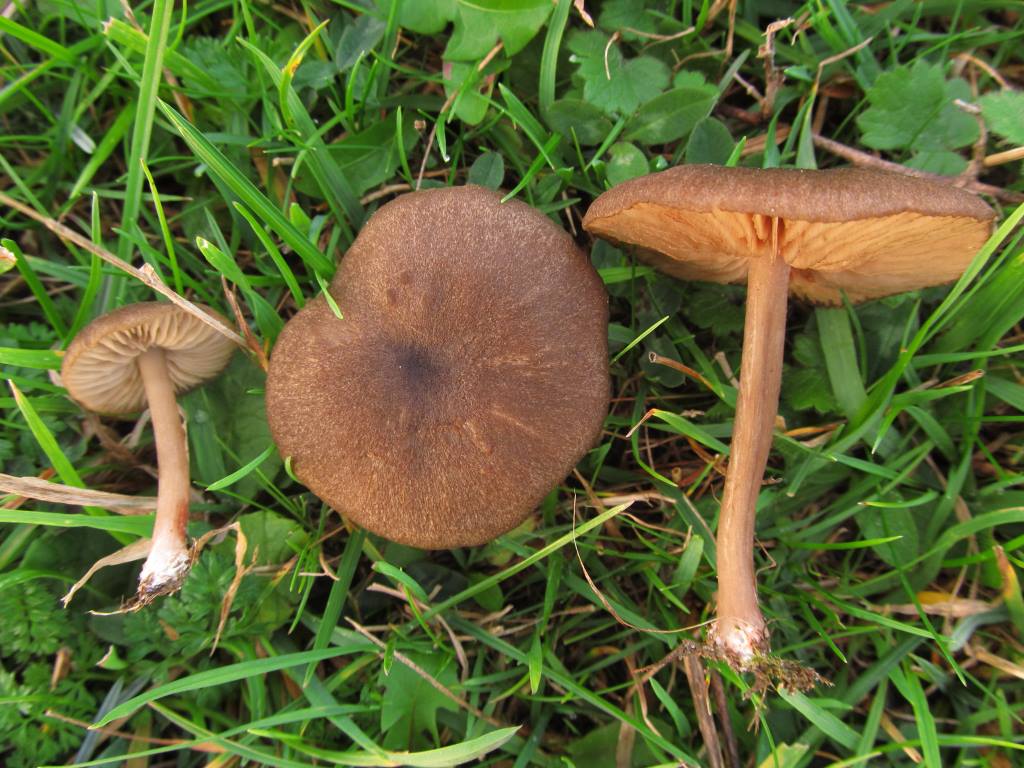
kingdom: Fungi
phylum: Basidiomycota
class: Agaricomycetes
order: Agaricales
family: Entolomataceae
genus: Entoloma
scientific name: Entoloma turci
